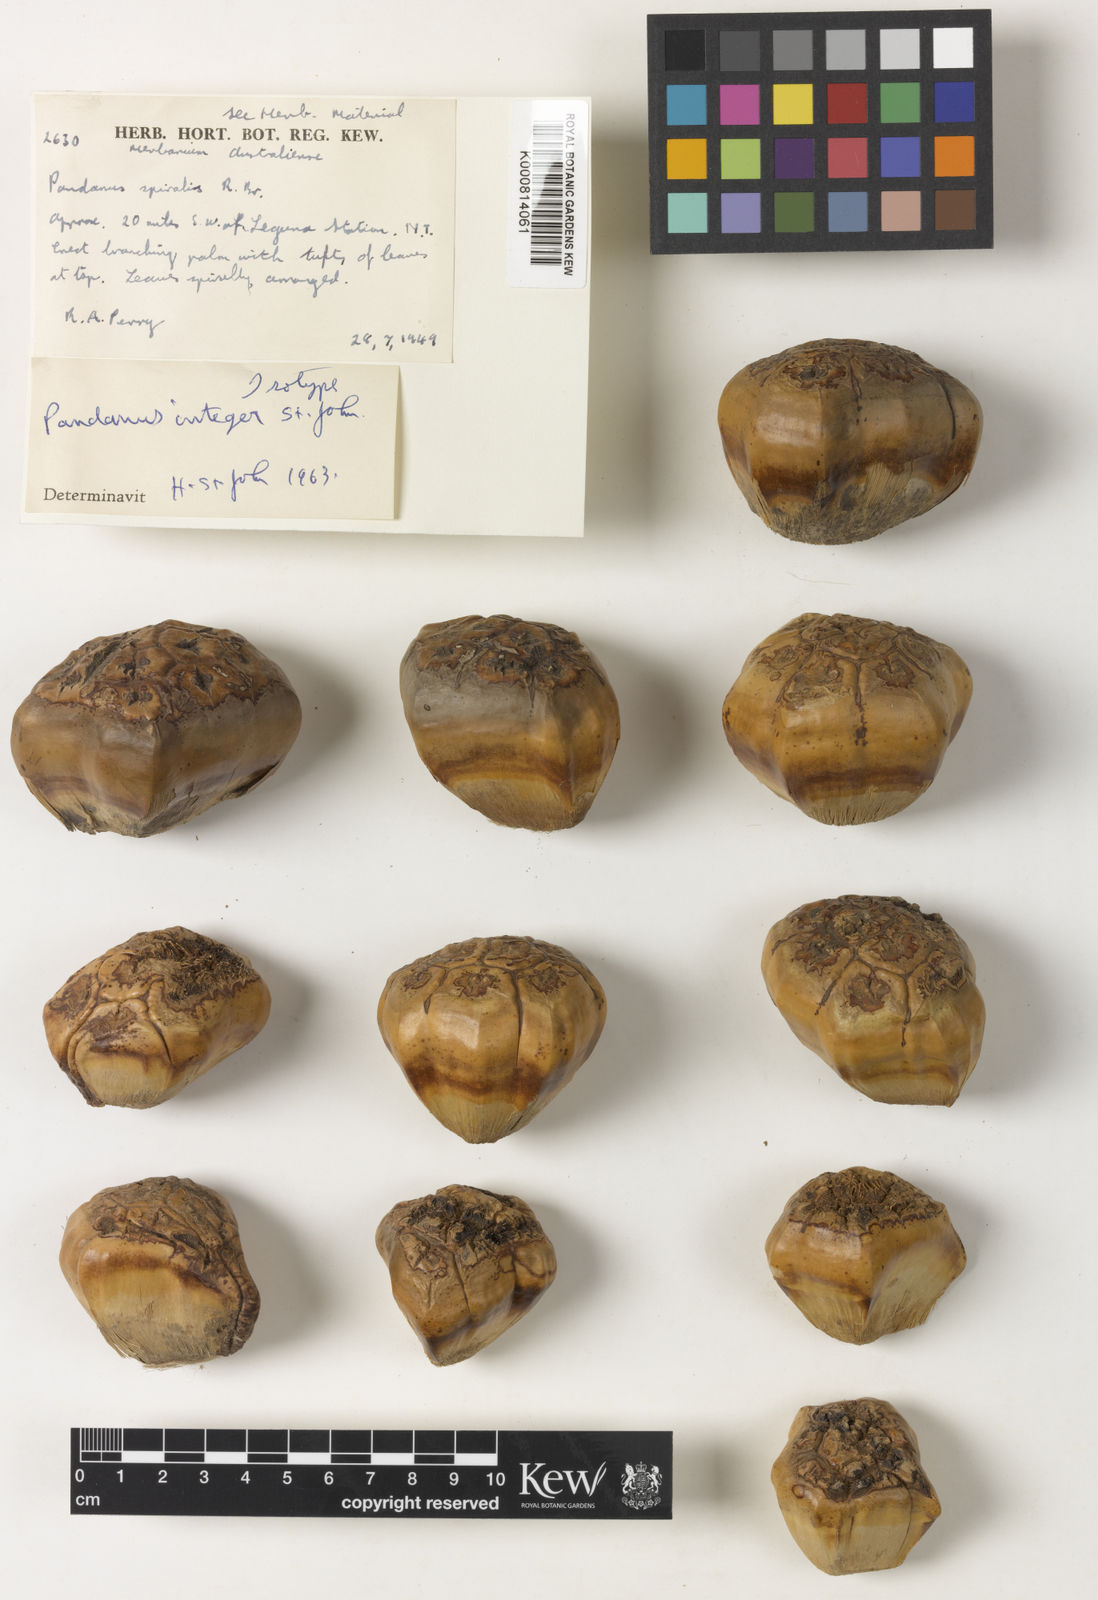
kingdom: Plantae
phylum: Tracheophyta
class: Liliopsida
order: Pandanales
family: Pandanaceae
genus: Pandanus
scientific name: Pandanus spiralis
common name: Screw-pine
